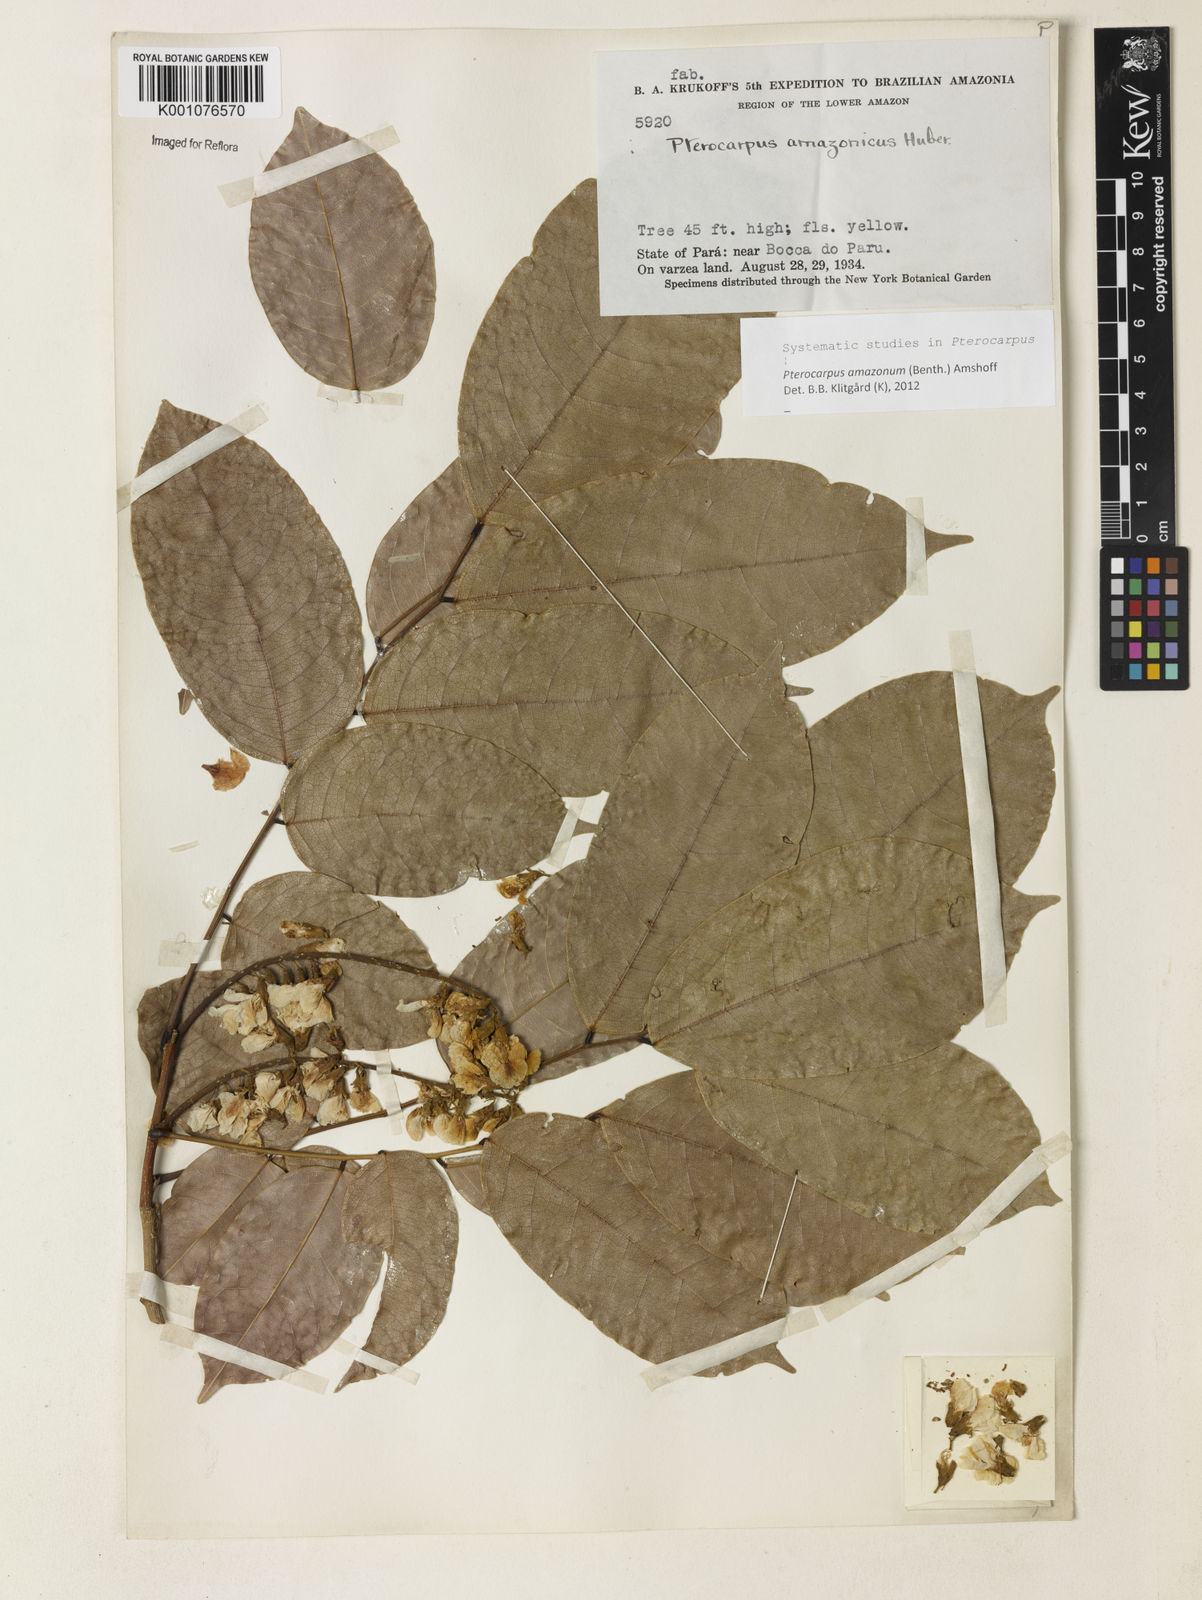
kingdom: Plantae
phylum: Tracheophyta
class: Magnoliopsida
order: Fabales
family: Fabaceae
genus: Pterocarpus
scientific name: Pterocarpus amazonum
